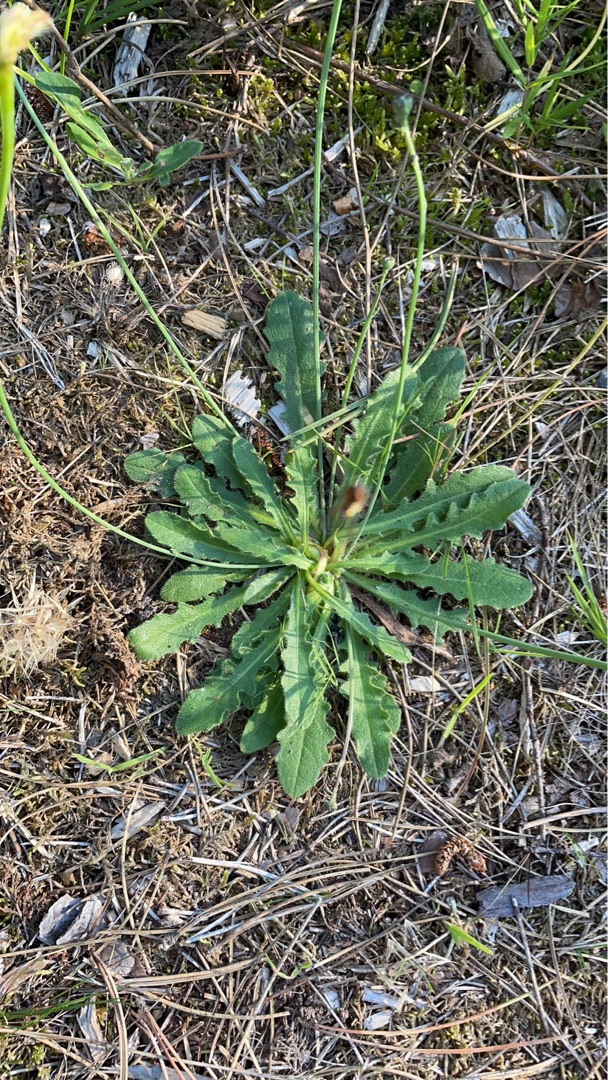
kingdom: Plantae
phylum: Tracheophyta
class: Magnoliopsida
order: Asterales
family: Asteraceae
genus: Hypochaeris
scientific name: Hypochaeris radicata
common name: Almindelig kongepen
